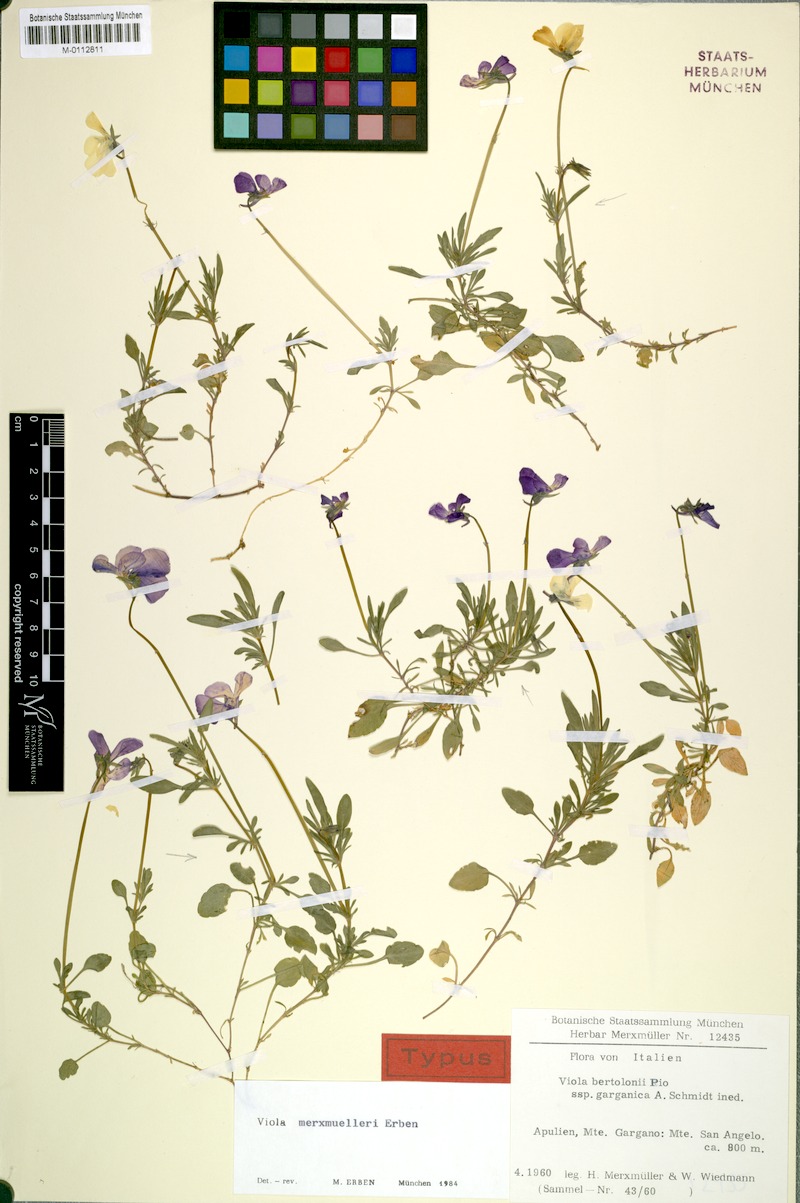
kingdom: Plantae
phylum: Tracheophyta
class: Magnoliopsida
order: Malpighiales
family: Violaceae
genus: Viola
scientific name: Viola merxmuelleri
